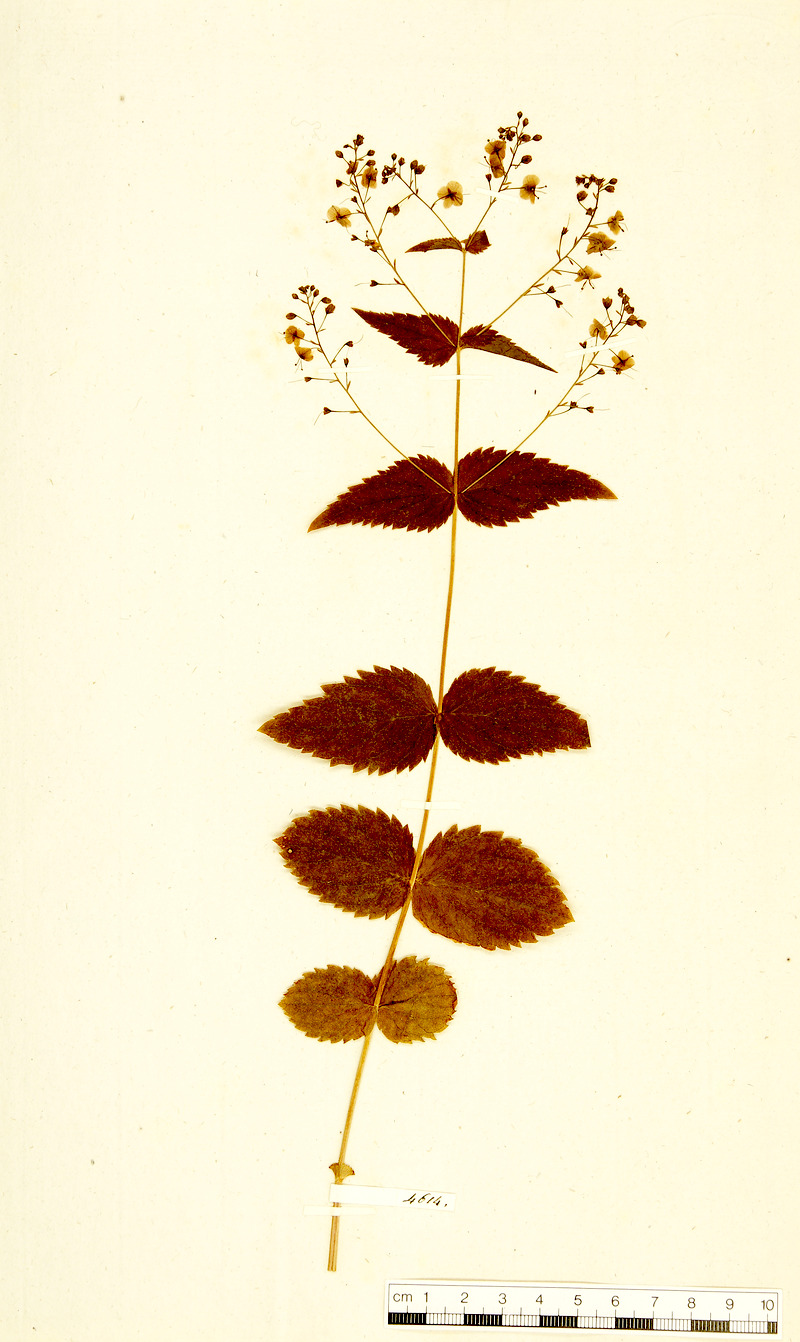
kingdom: Plantae
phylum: Tracheophyta
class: Magnoliopsida
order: Lamiales
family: Plantaginaceae
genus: Veronica
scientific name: Veronica urticifolia
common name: Nettle-leaf speedwell
